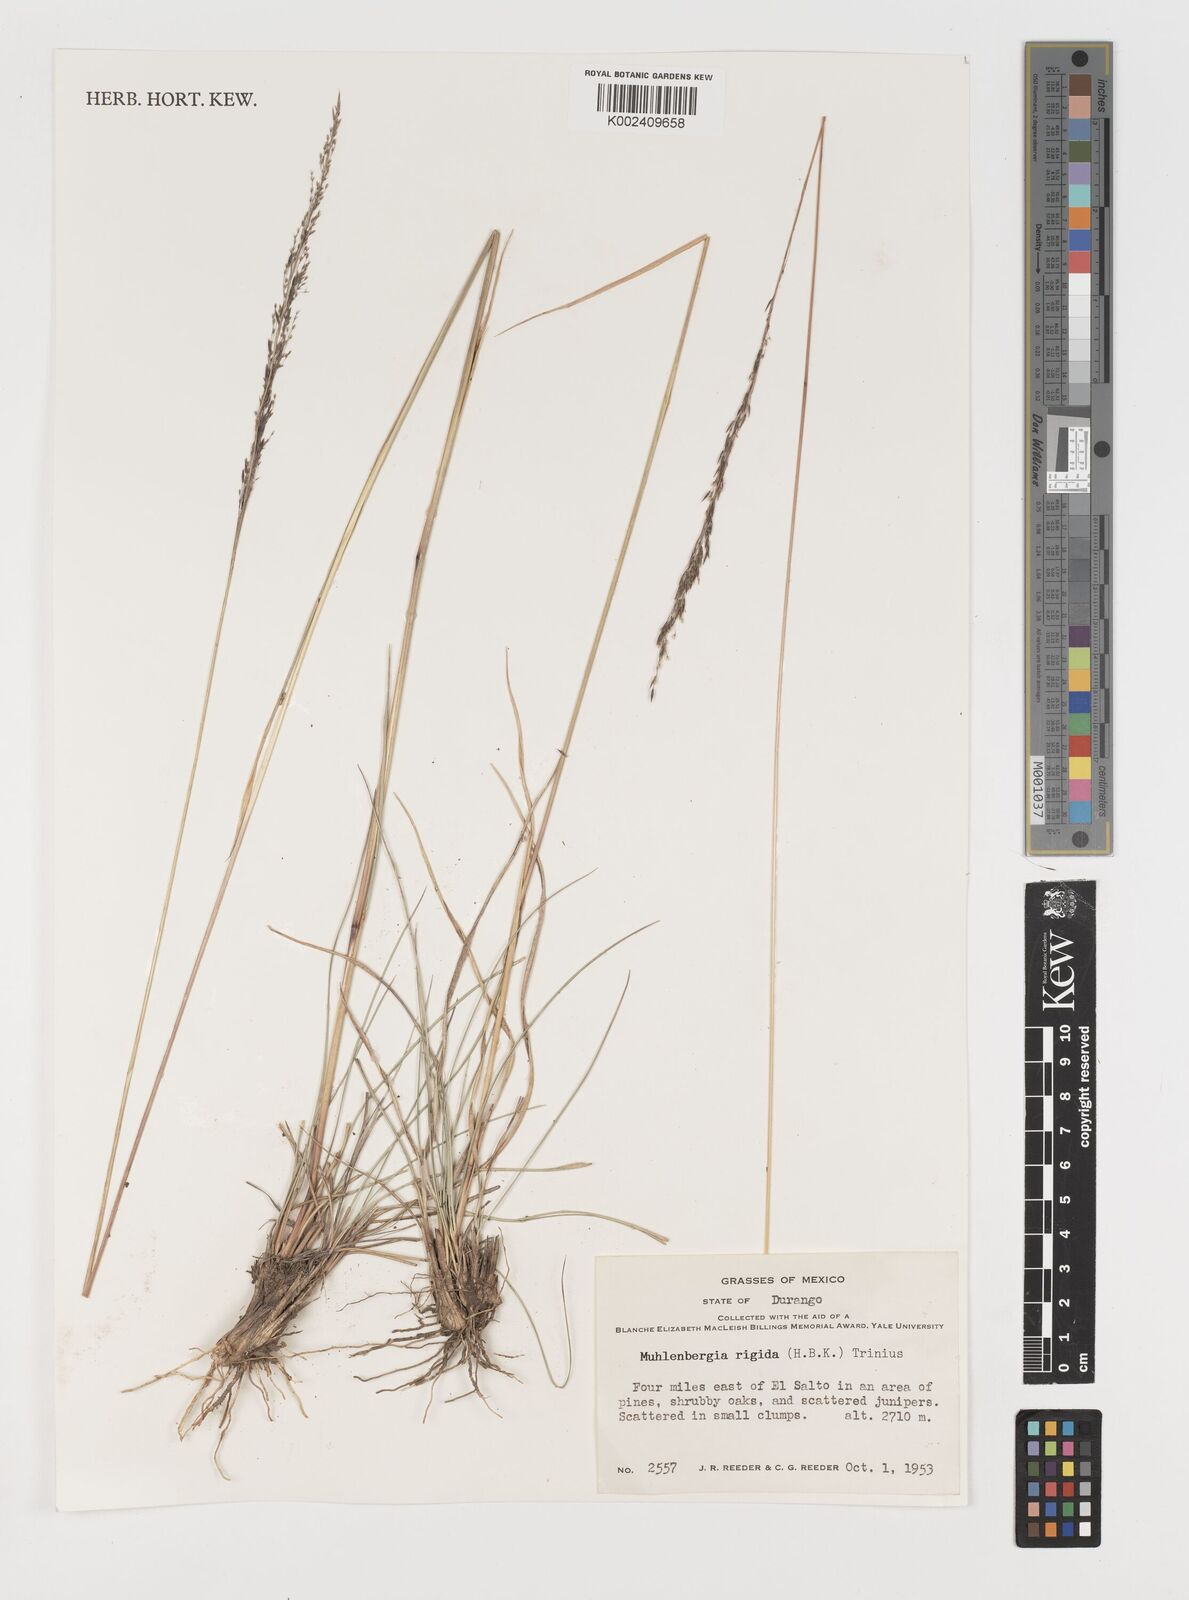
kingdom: Plantae
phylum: Tracheophyta
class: Liliopsida
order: Poales
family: Poaceae
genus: Muhlenbergia
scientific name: Muhlenbergia rigida
